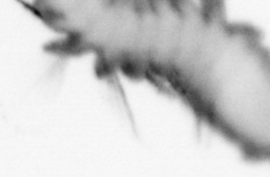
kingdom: Animalia
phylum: Annelida
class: Polychaeta
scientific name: Polychaeta
